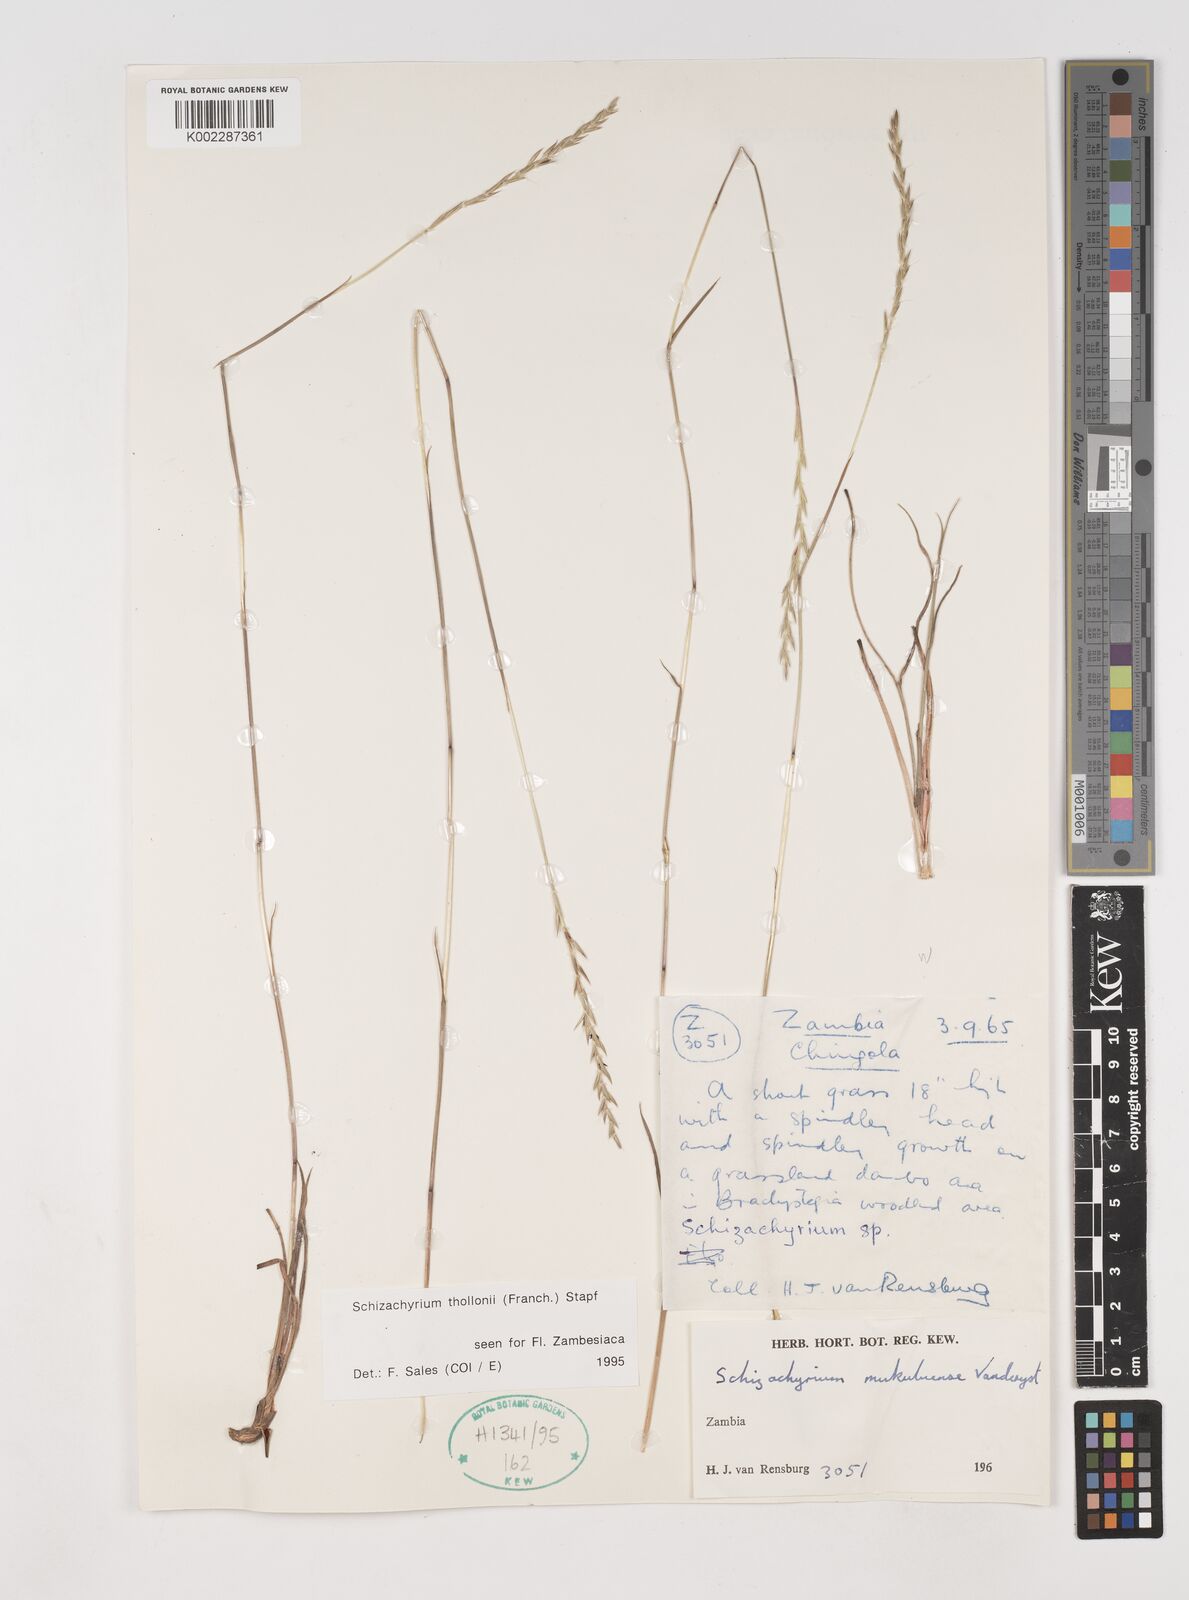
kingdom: Plantae
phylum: Tracheophyta
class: Liliopsida
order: Poales
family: Poaceae
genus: Schizachyrium
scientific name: Schizachyrium thollonii
